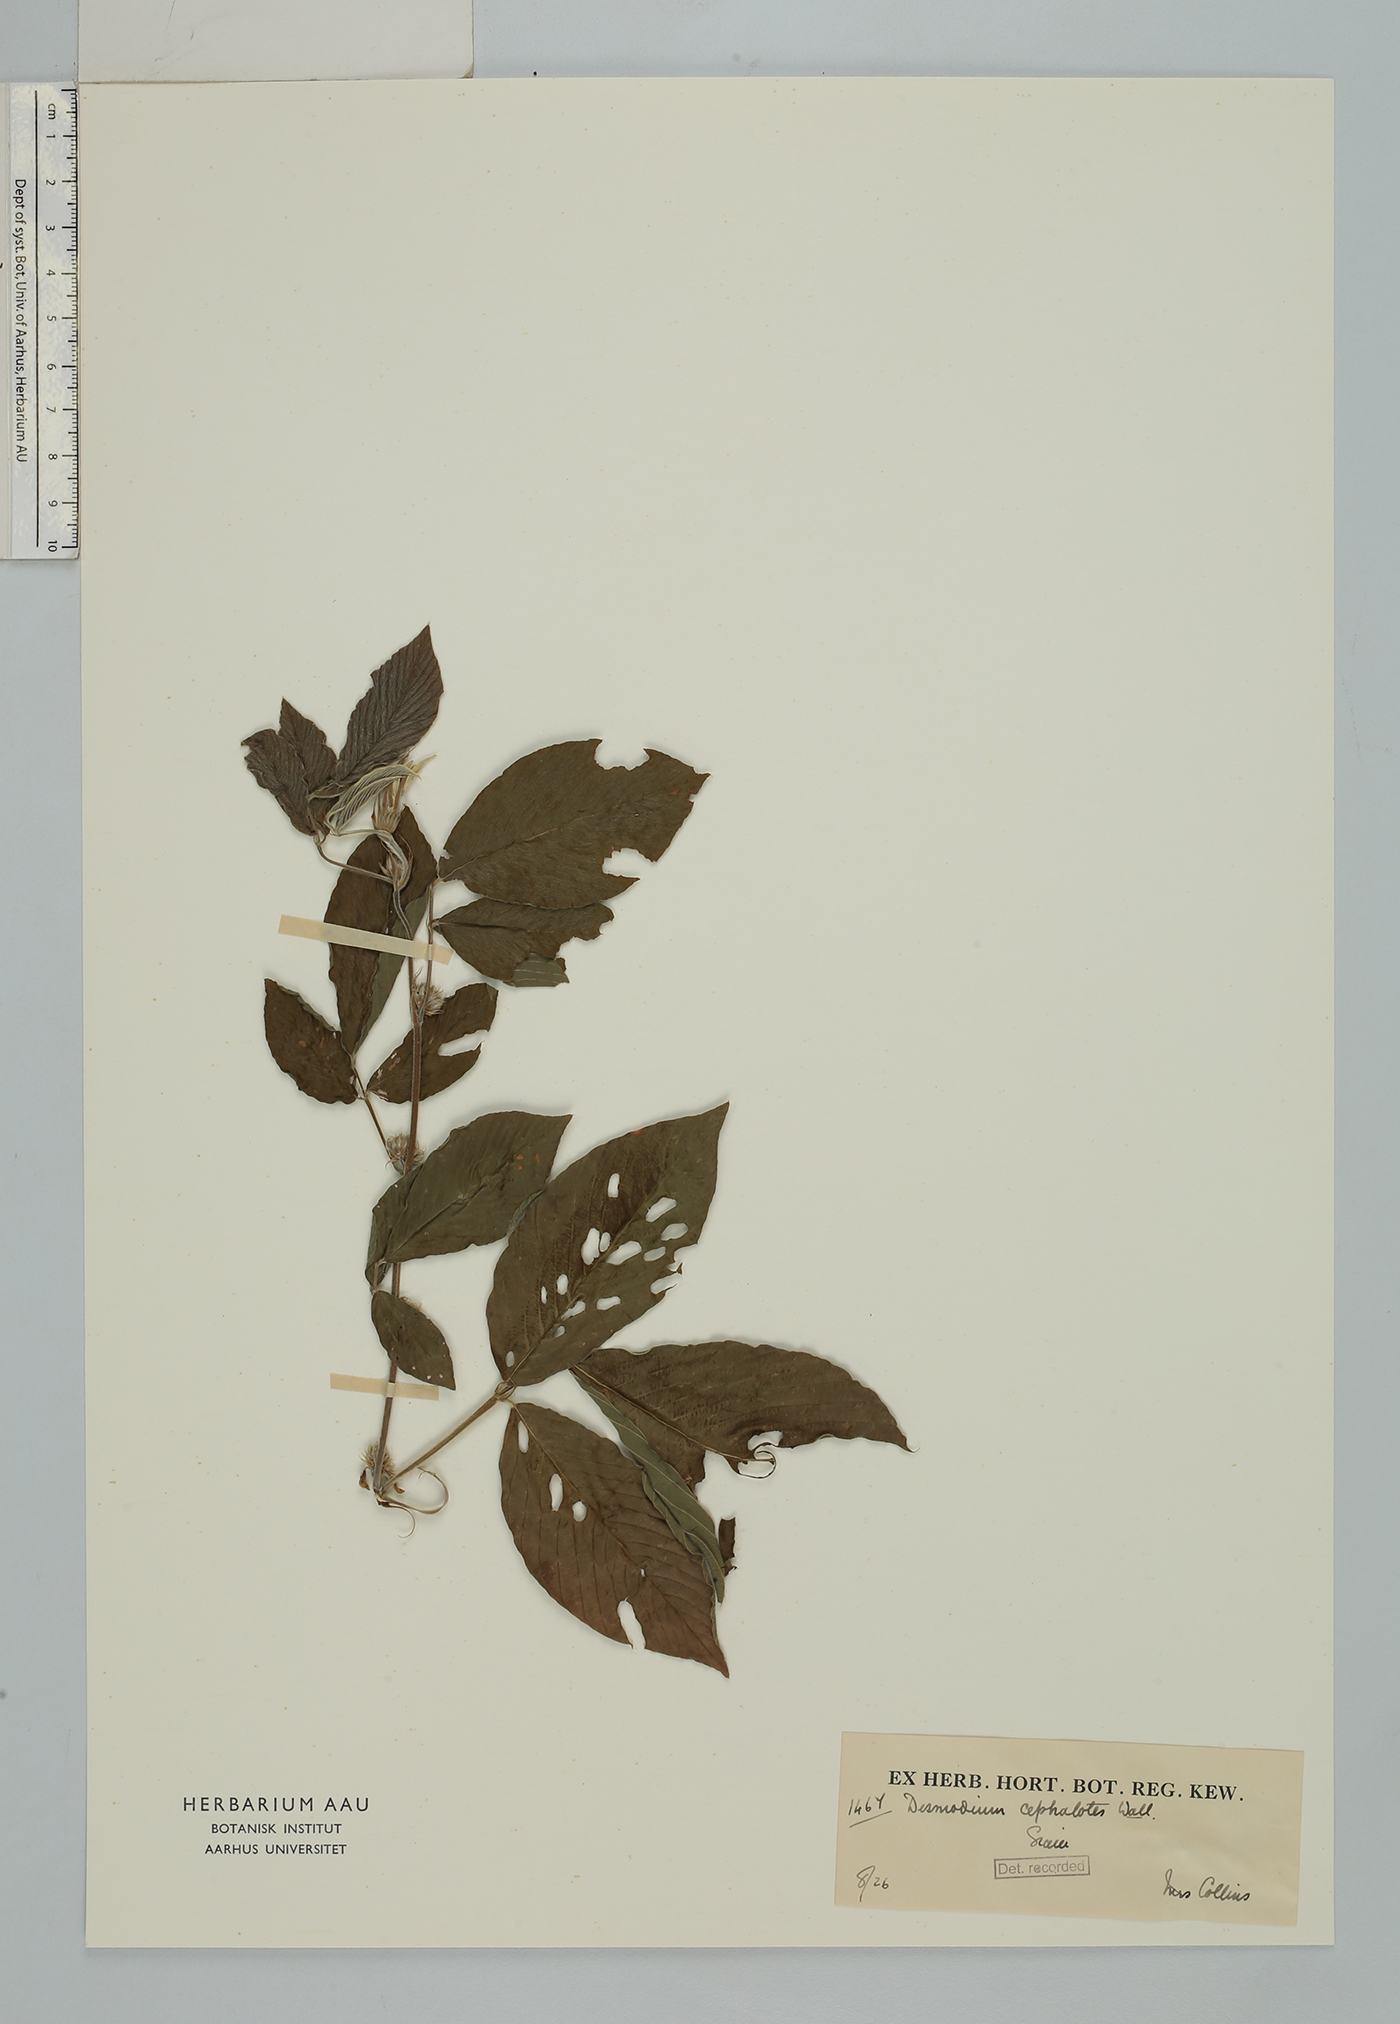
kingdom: Plantae
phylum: Tracheophyta
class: Magnoliopsida
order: Fabales
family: Fabaceae
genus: Dendrolobium
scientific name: Dendrolobium triangulare
